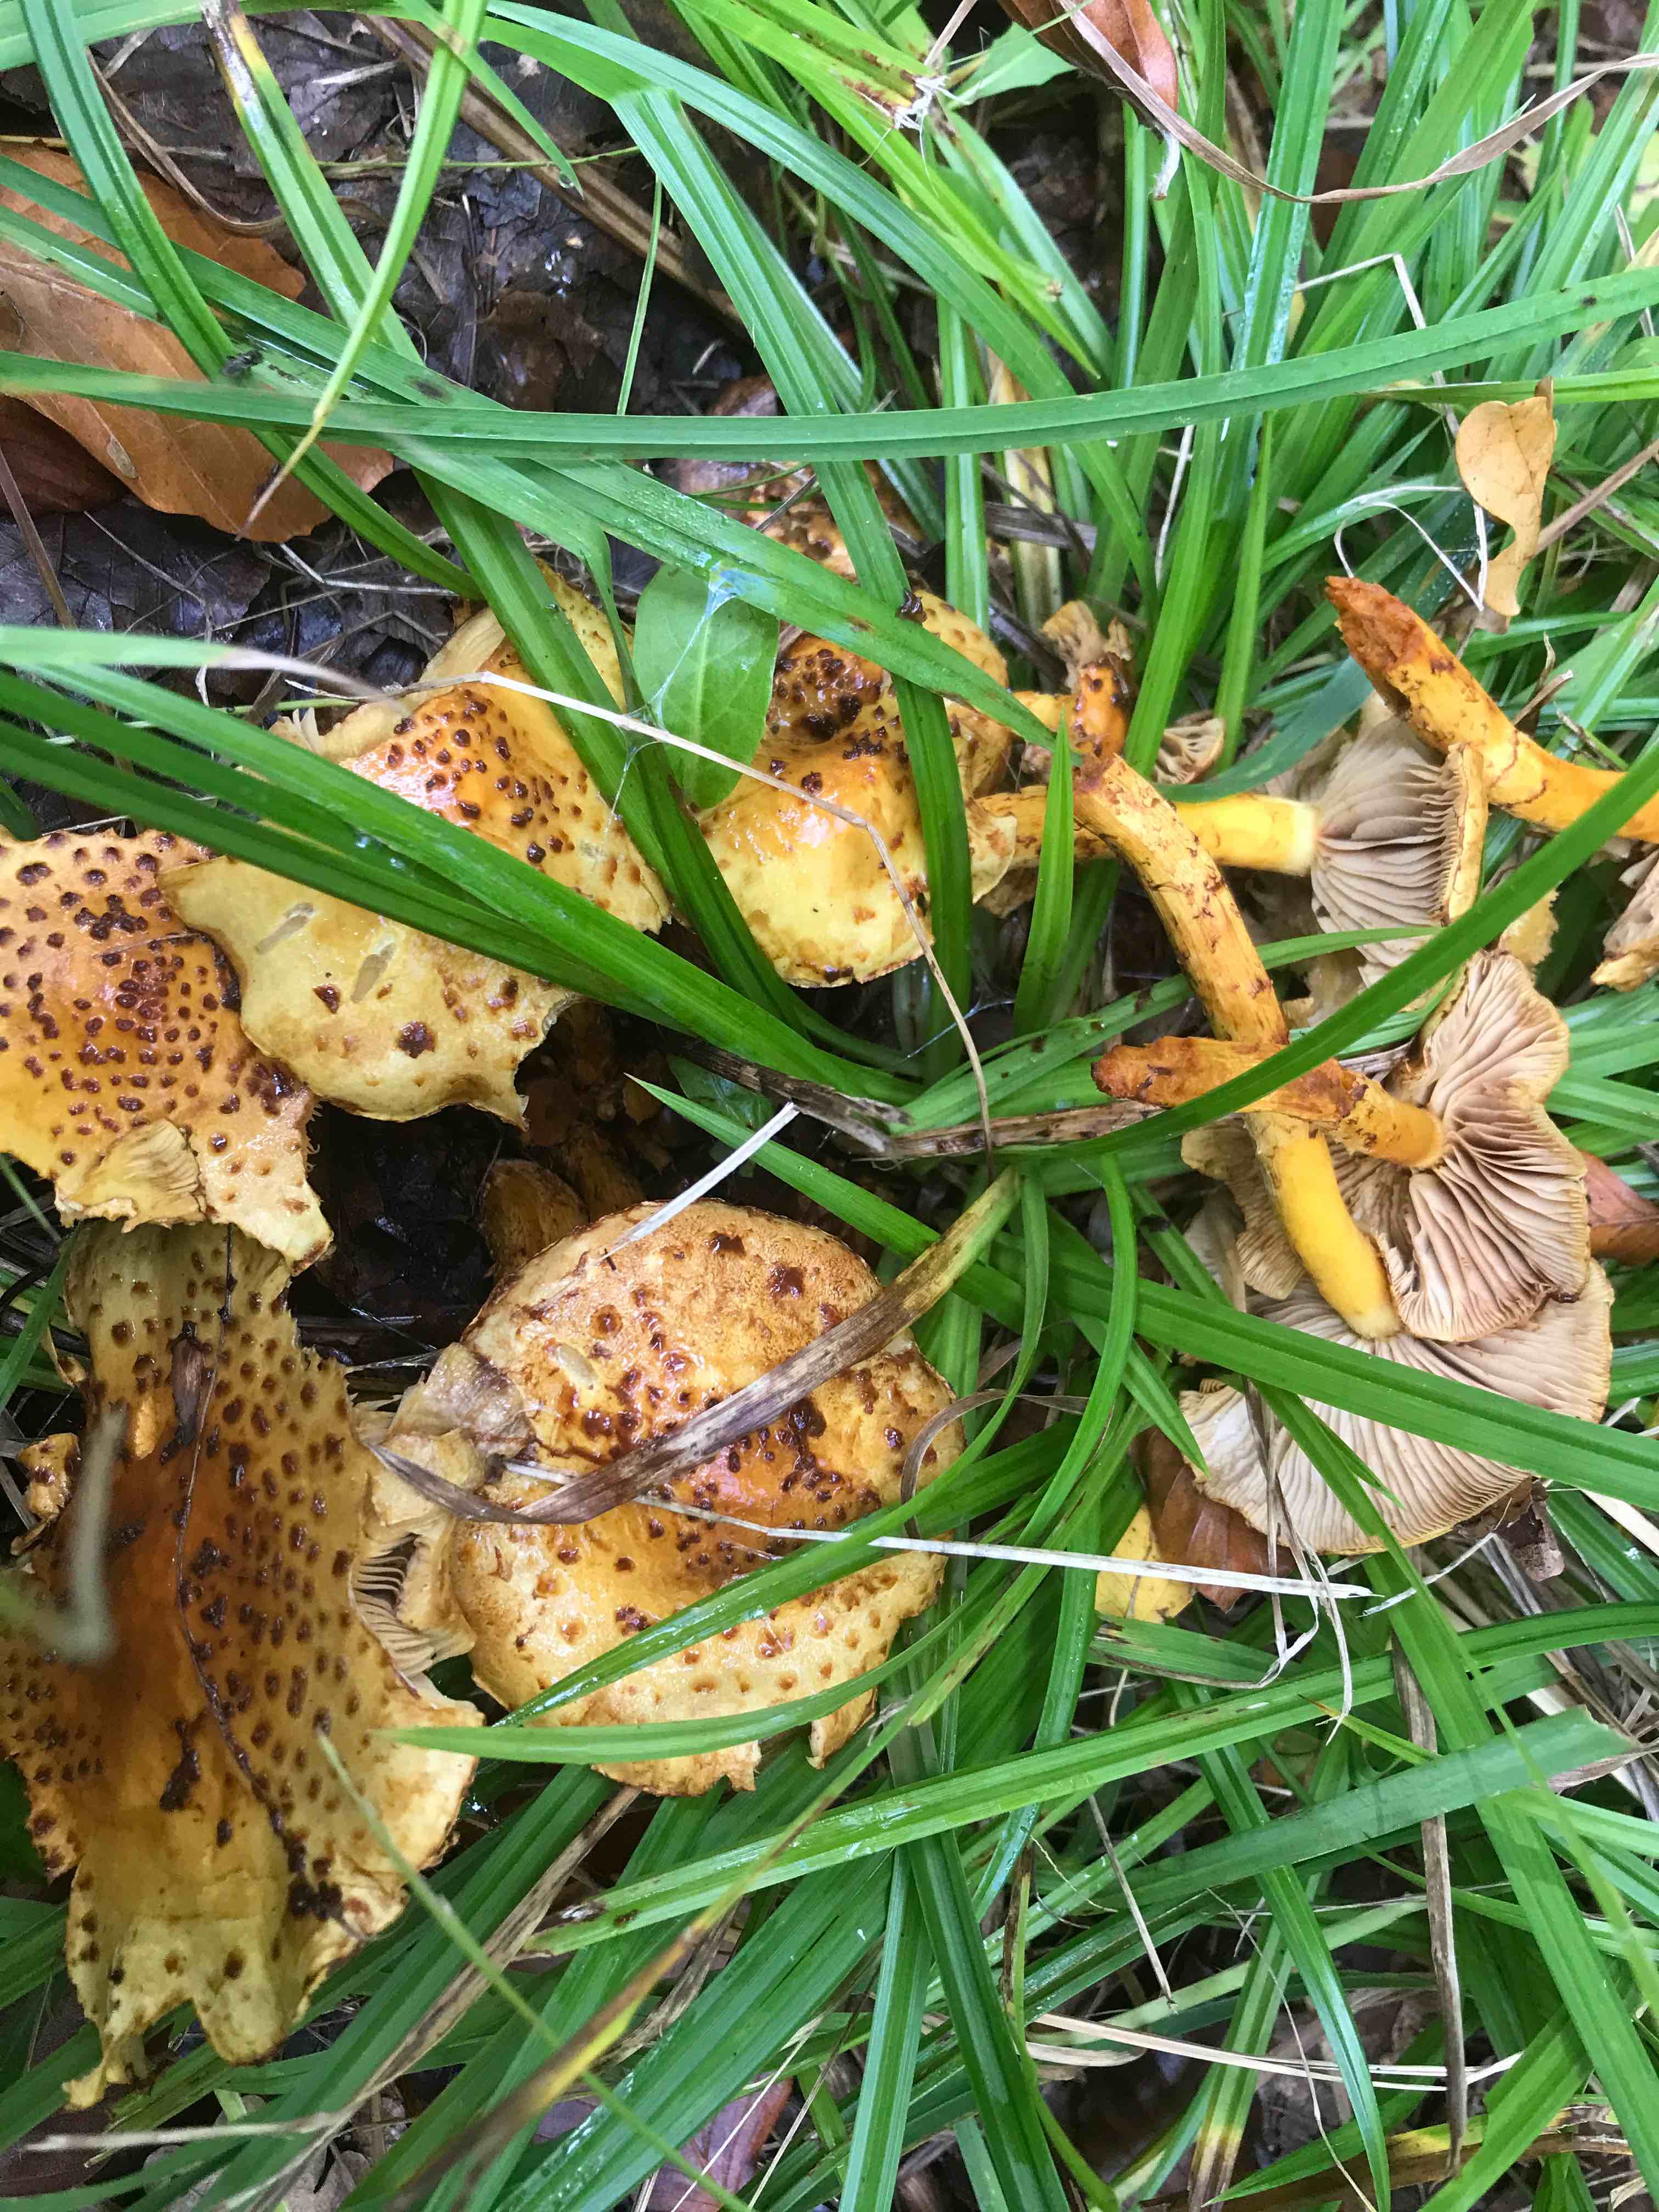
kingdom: Fungi
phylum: Basidiomycota
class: Agaricomycetes
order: Agaricales
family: Strophariaceae
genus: Pholiota
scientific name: Pholiota jahnii
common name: slimet skælhat
